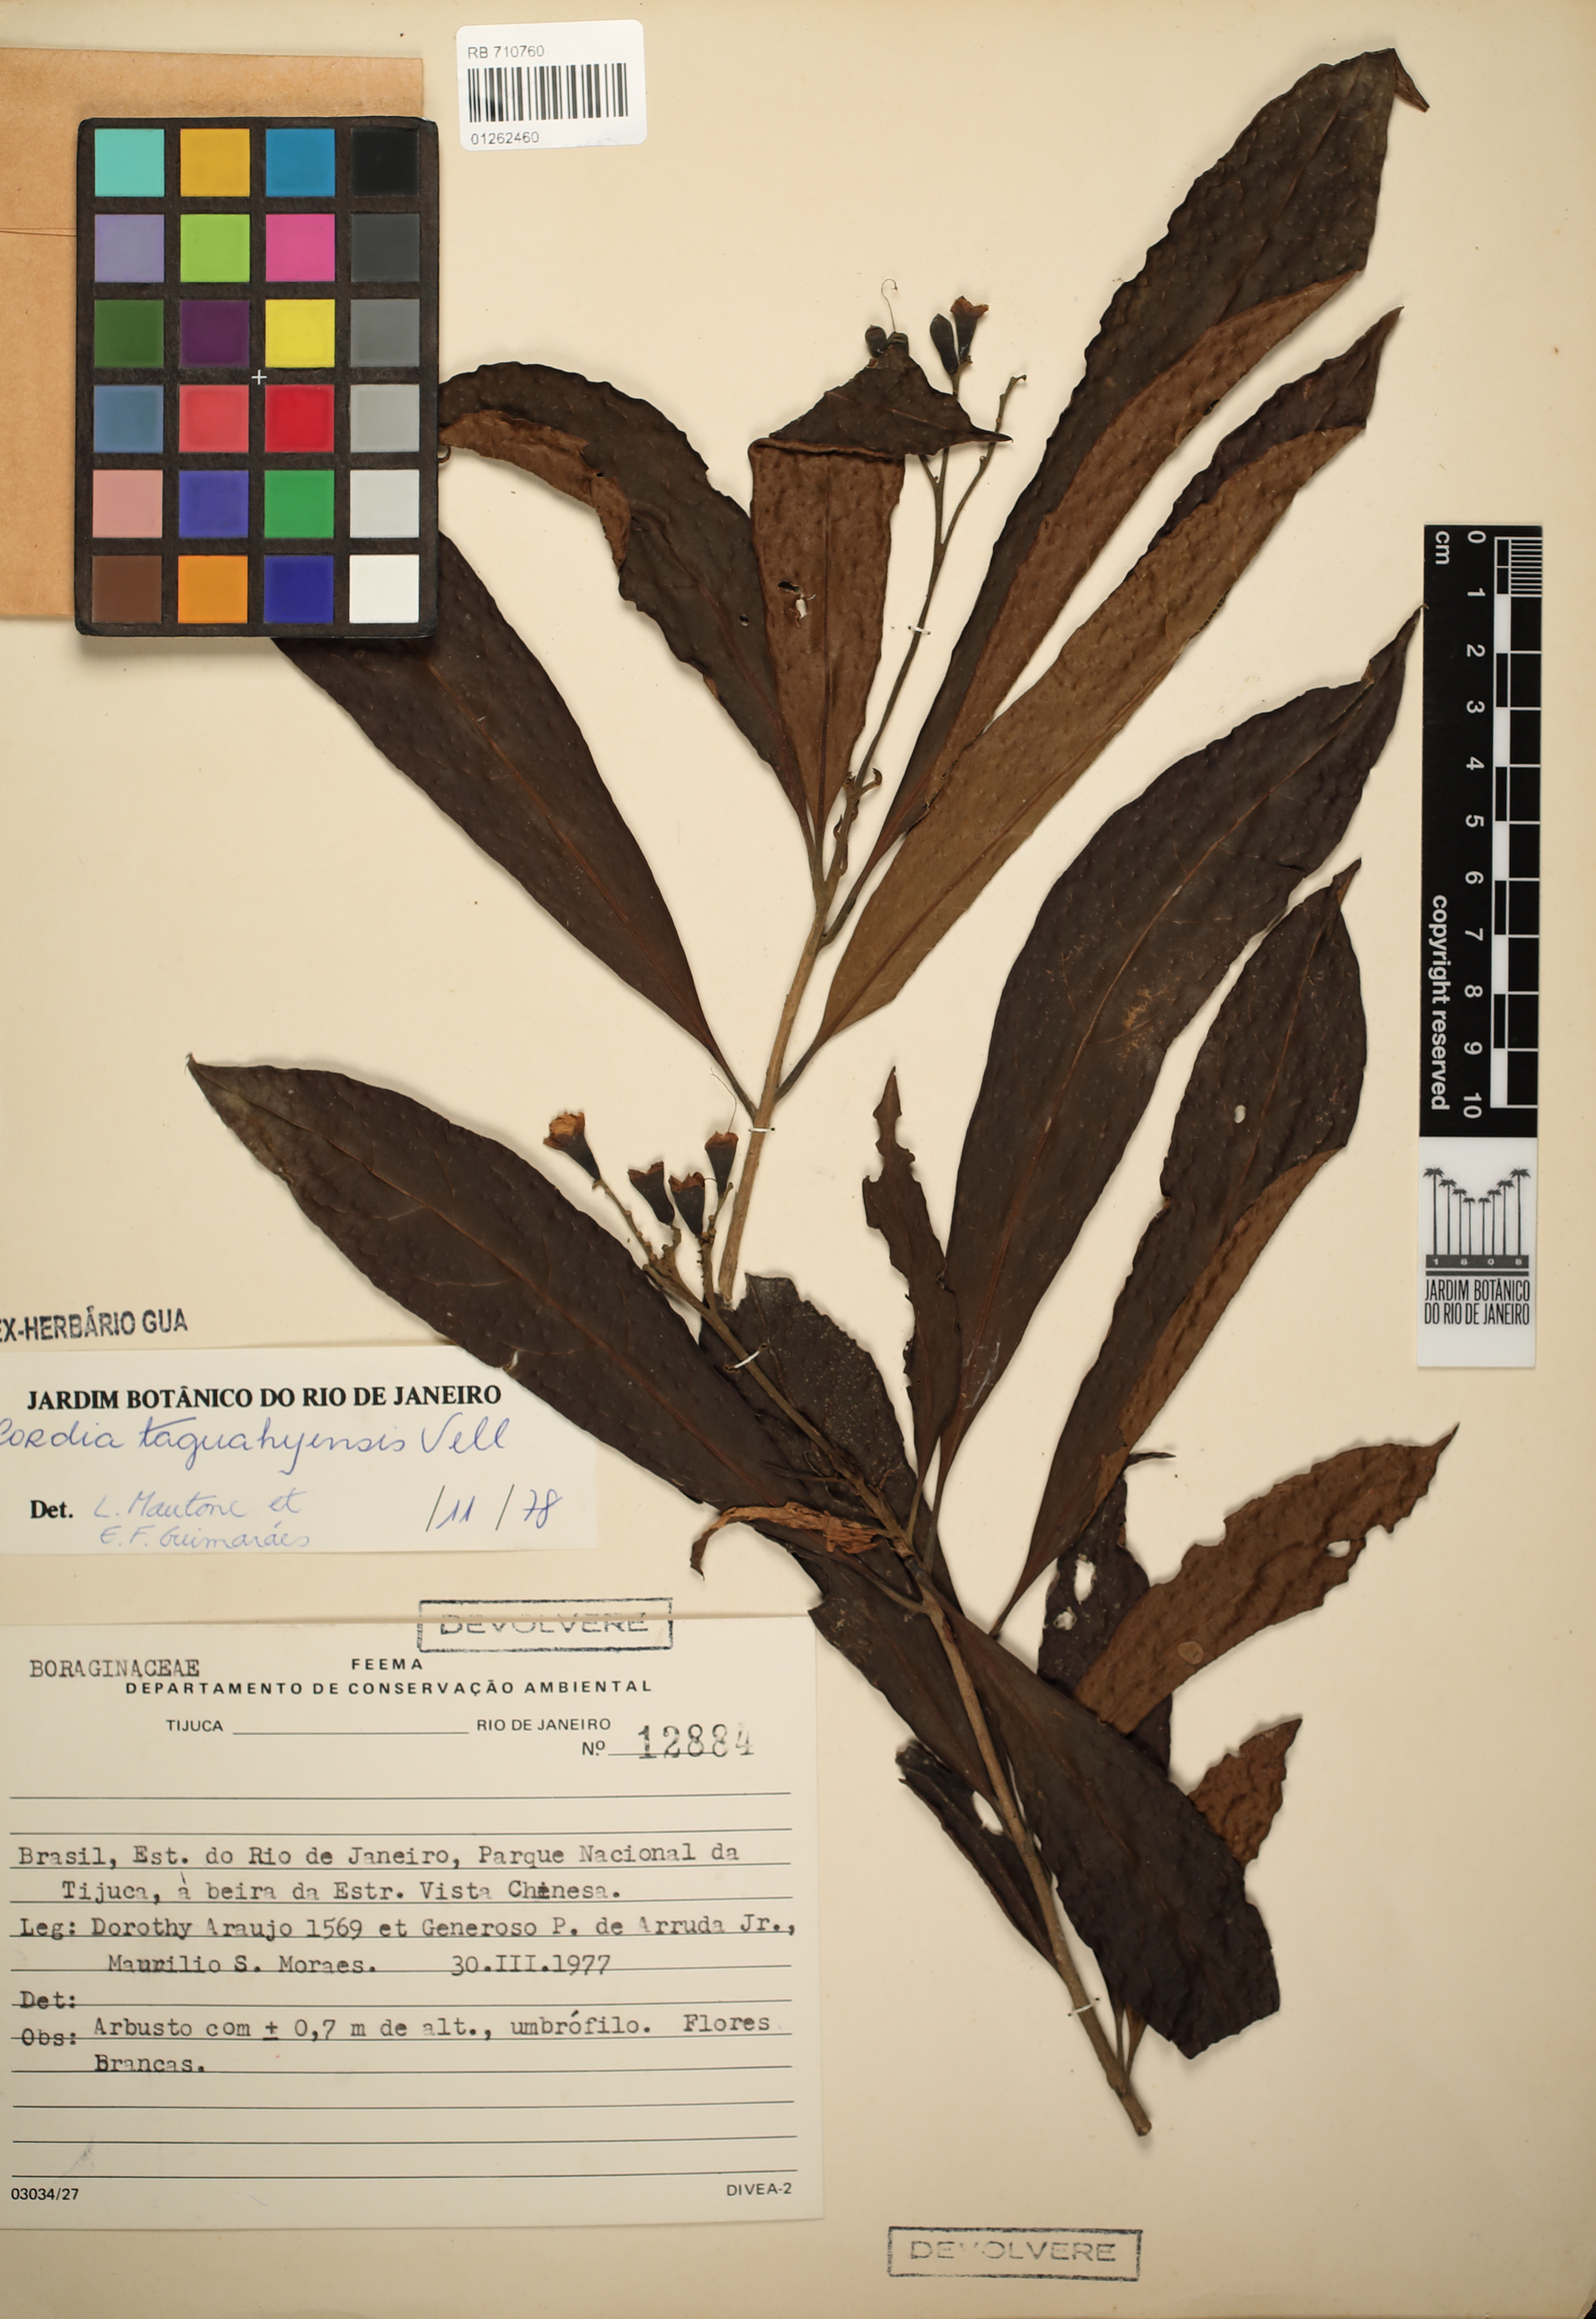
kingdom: Plantae
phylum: Tracheophyta
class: Magnoliopsida
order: Boraginales
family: Cordiaceae
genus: Cordia
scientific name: Cordia taguahuyensis
